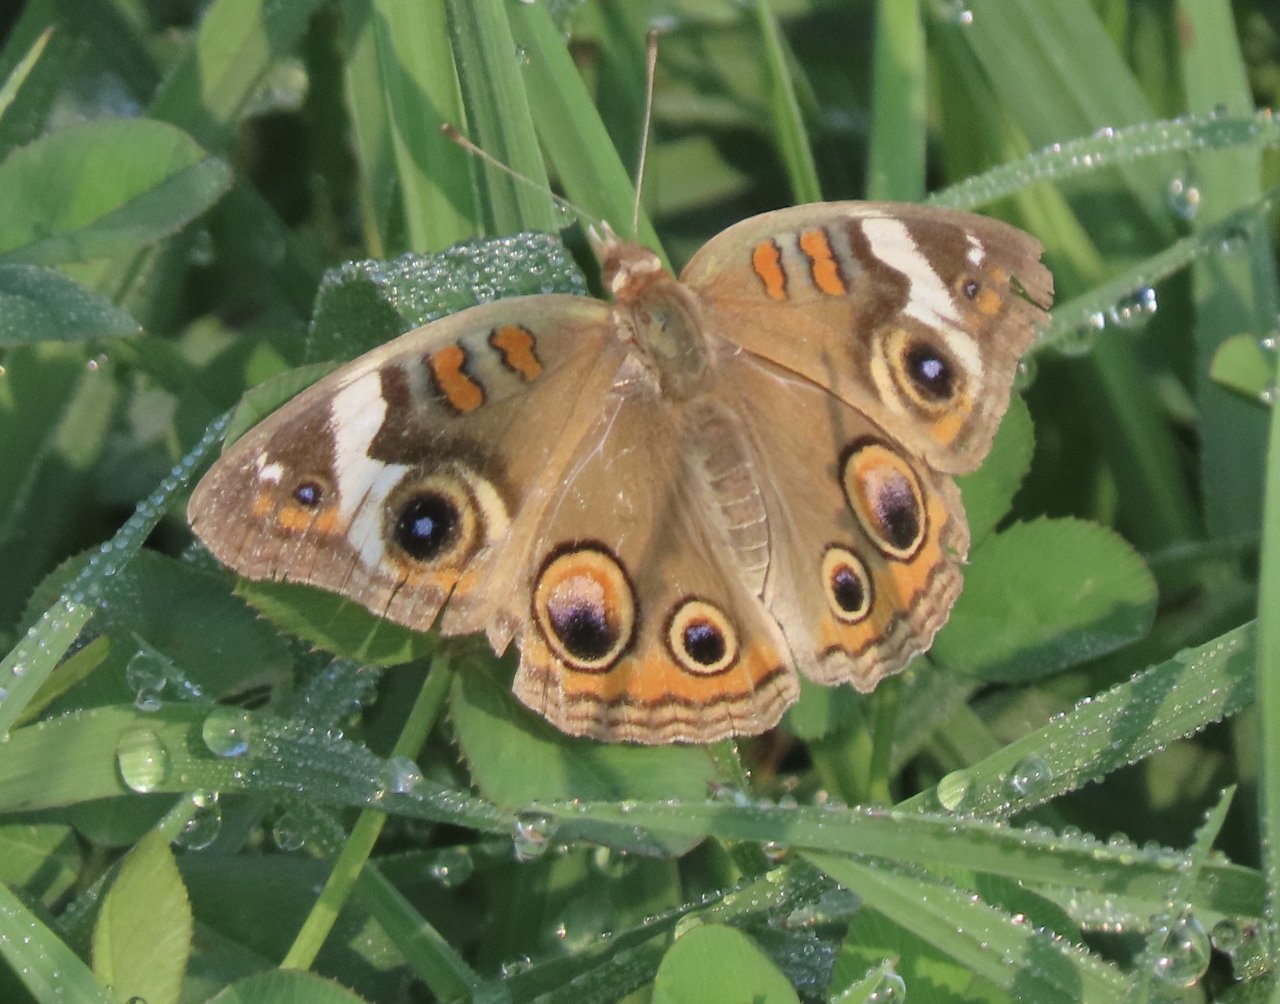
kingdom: Animalia
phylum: Arthropoda
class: Insecta
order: Lepidoptera
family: Nymphalidae
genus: Junonia
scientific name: Junonia coenia
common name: Common Buckeye
